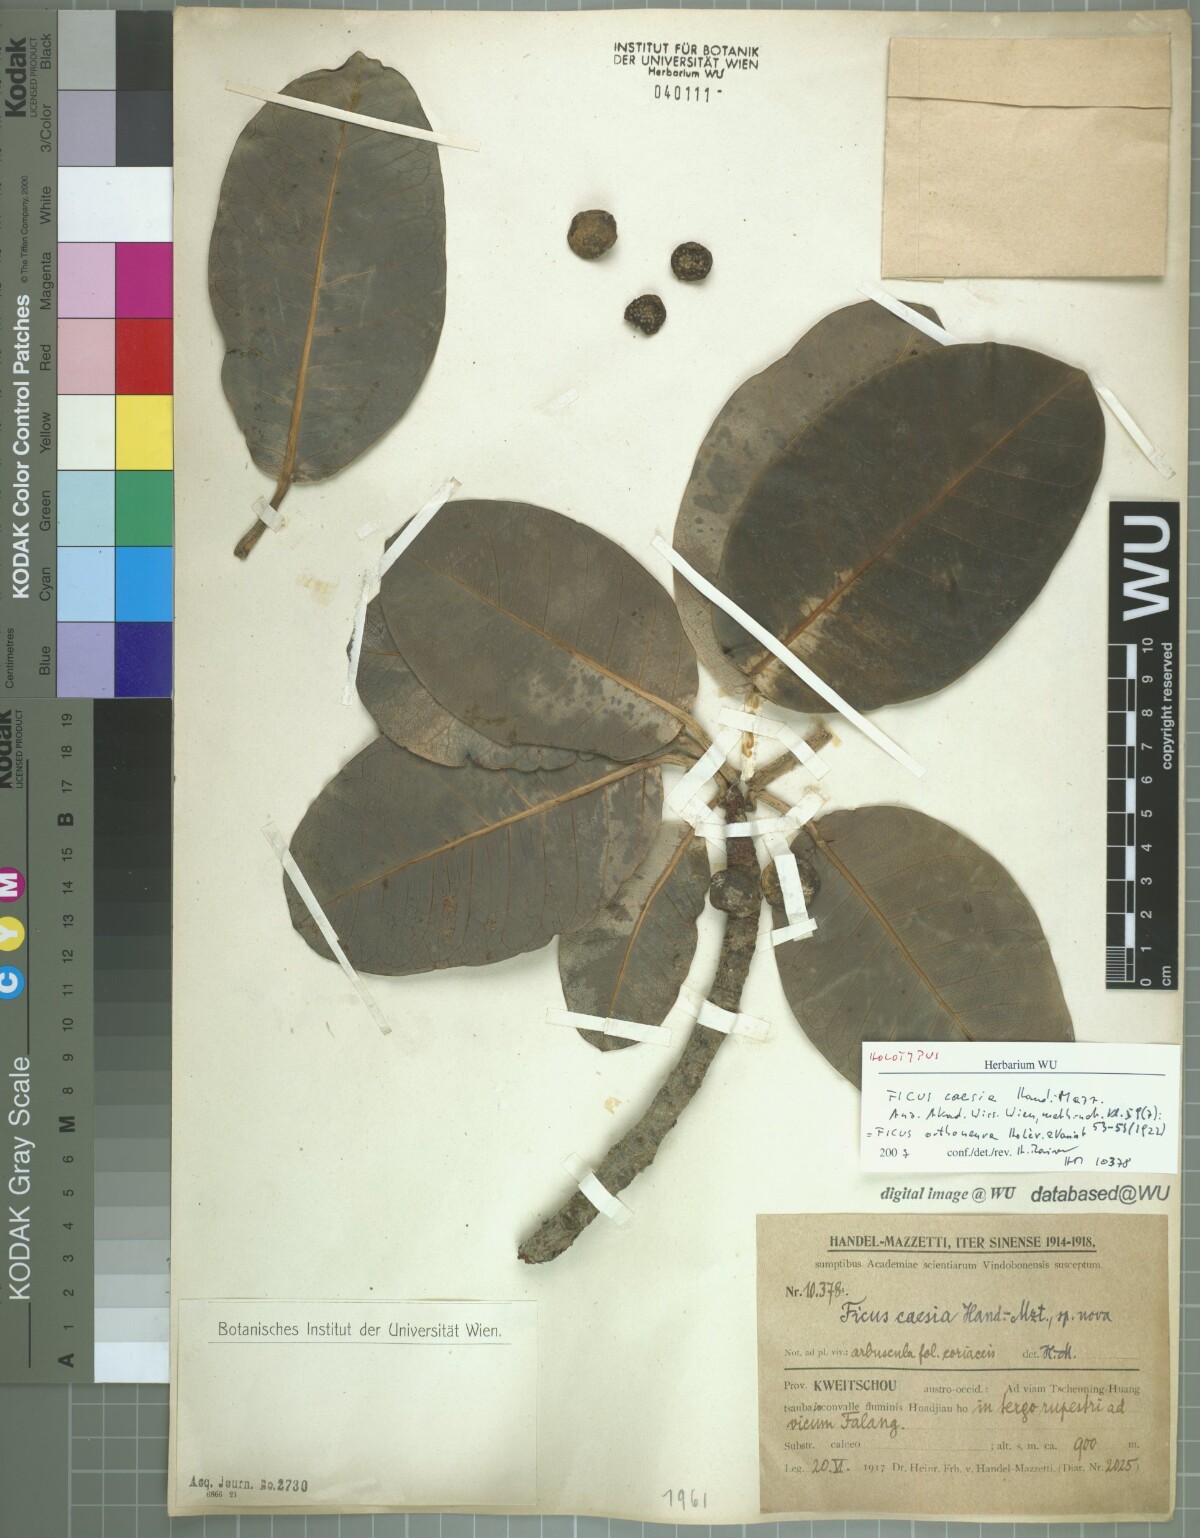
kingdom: Plantae
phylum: Tracheophyta
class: Magnoliopsida
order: Rosales
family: Moraceae
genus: Ficus
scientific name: Ficus orthoneura
